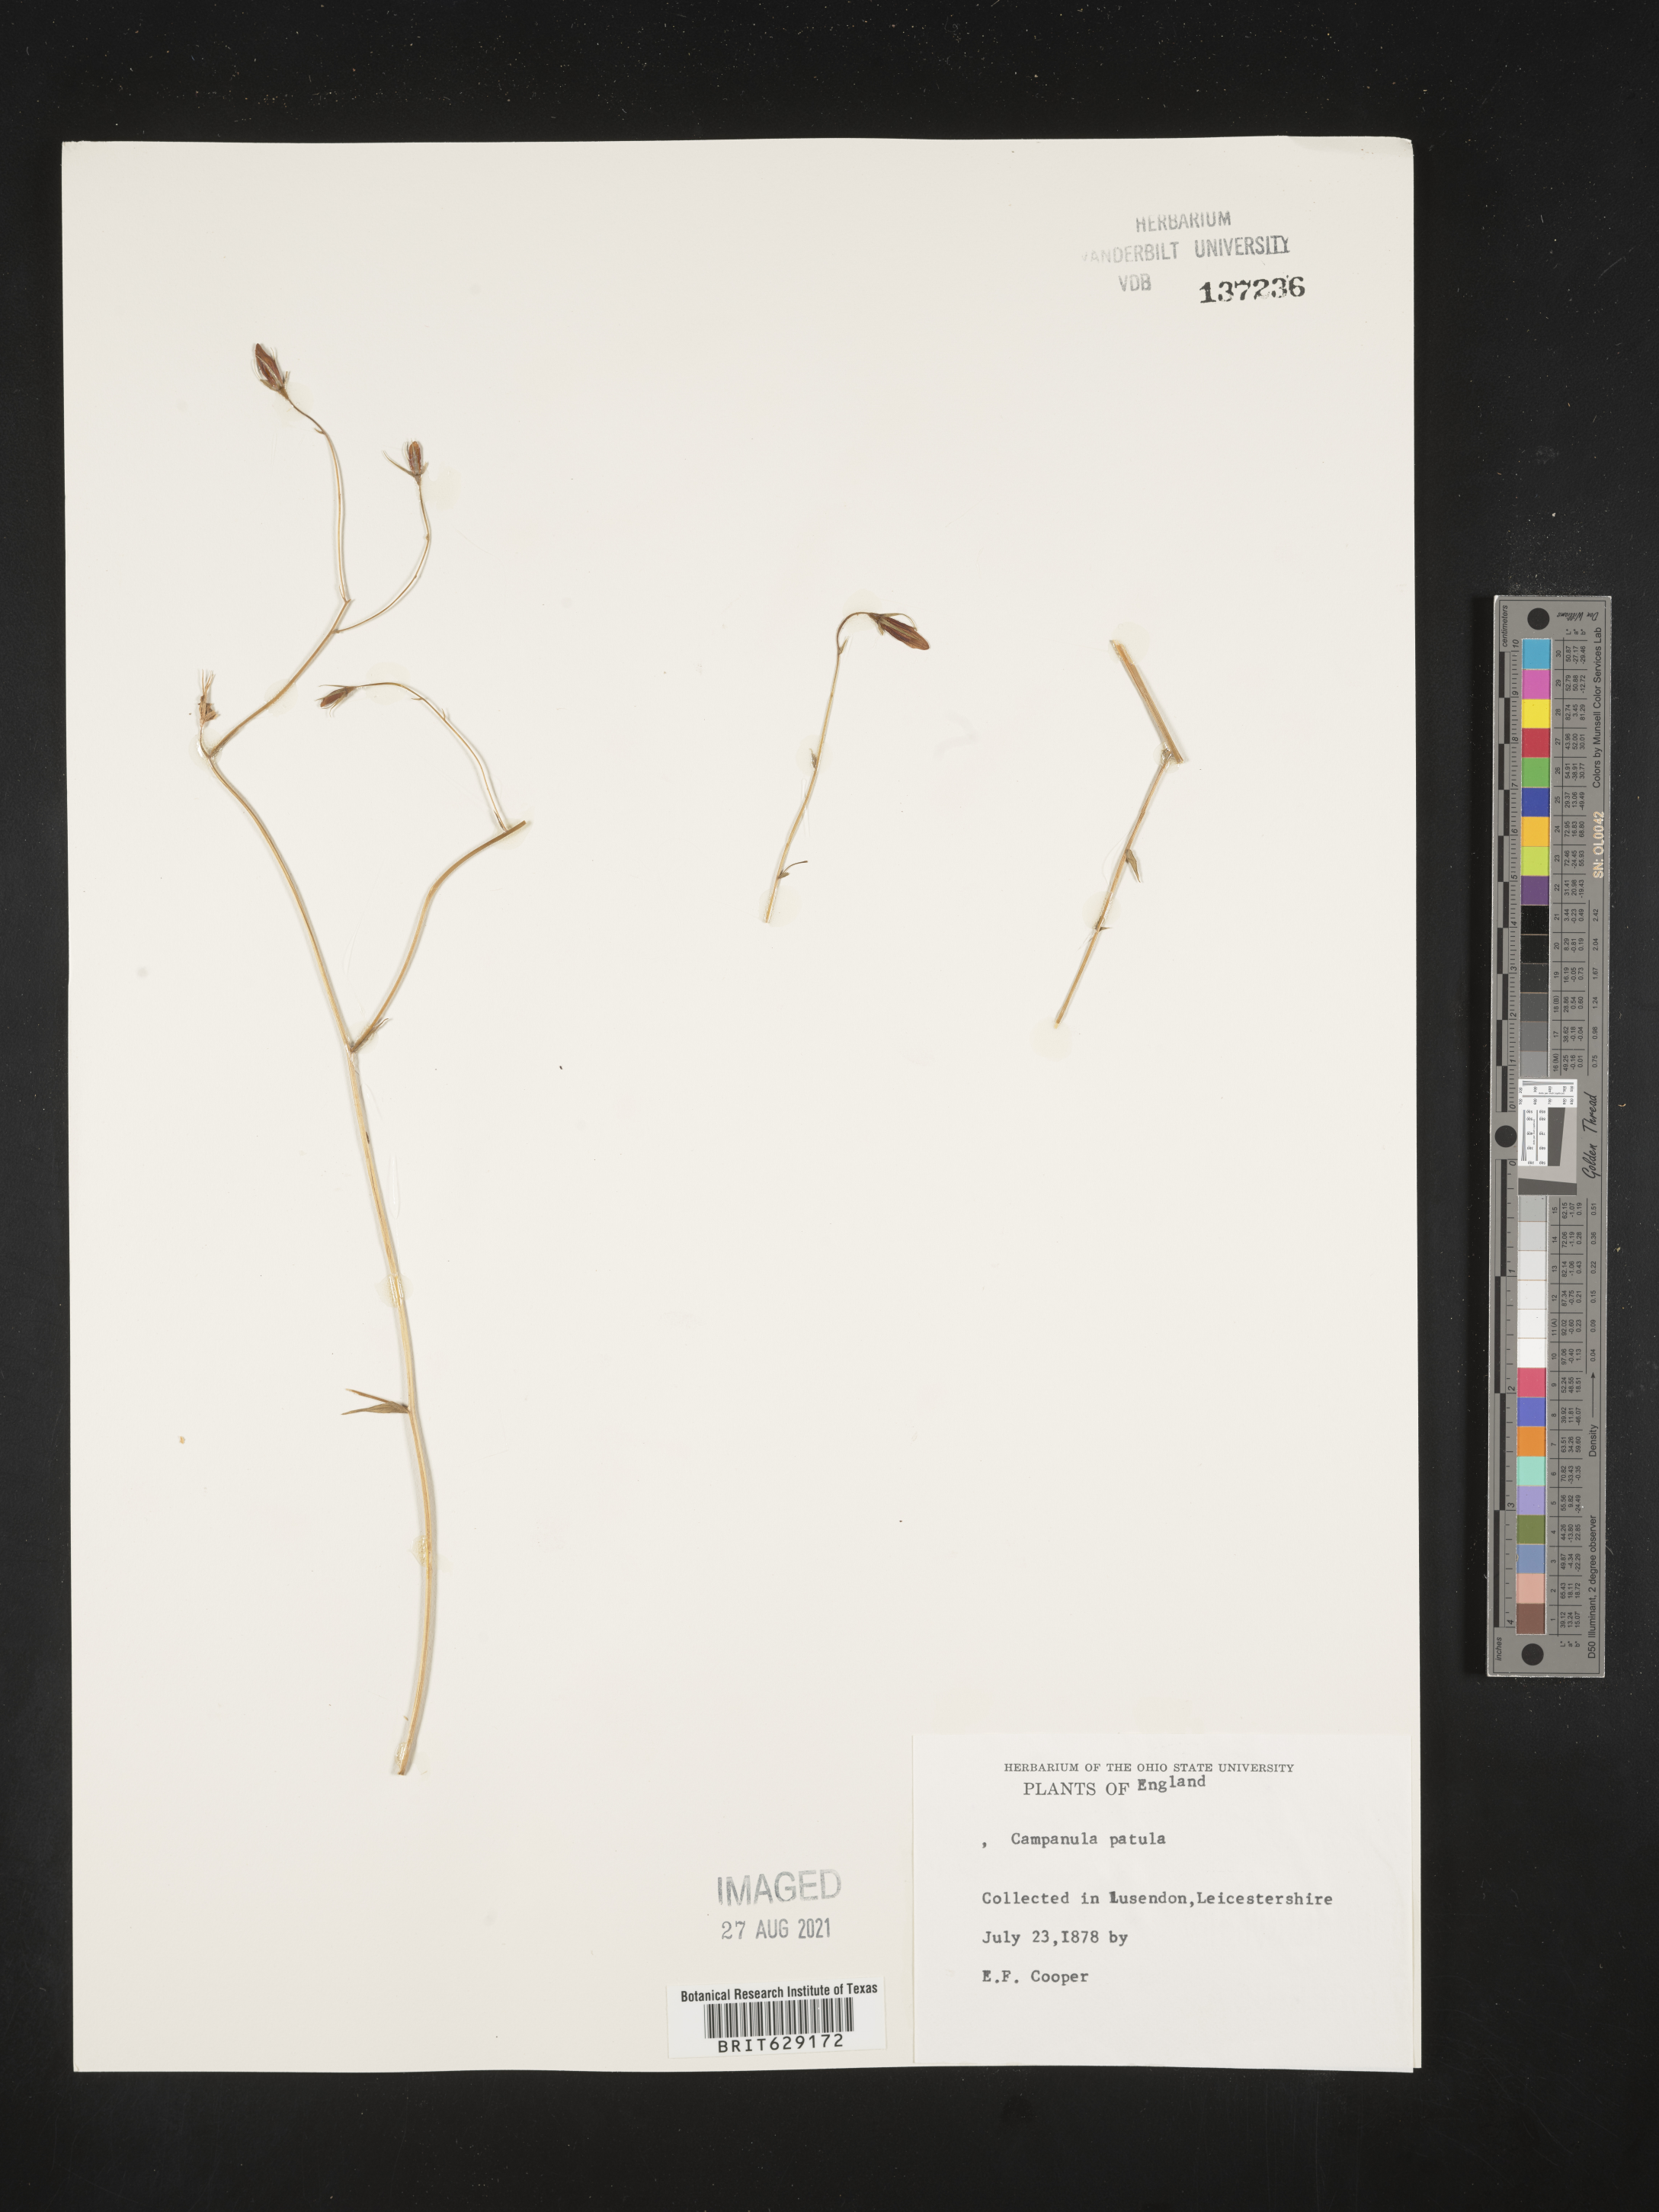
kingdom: Plantae
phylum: Tracheophyta
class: Magnoliopsida
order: Asterales
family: Campanulaceae
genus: Campanula
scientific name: Campanula patula
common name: Spreading bellflower
